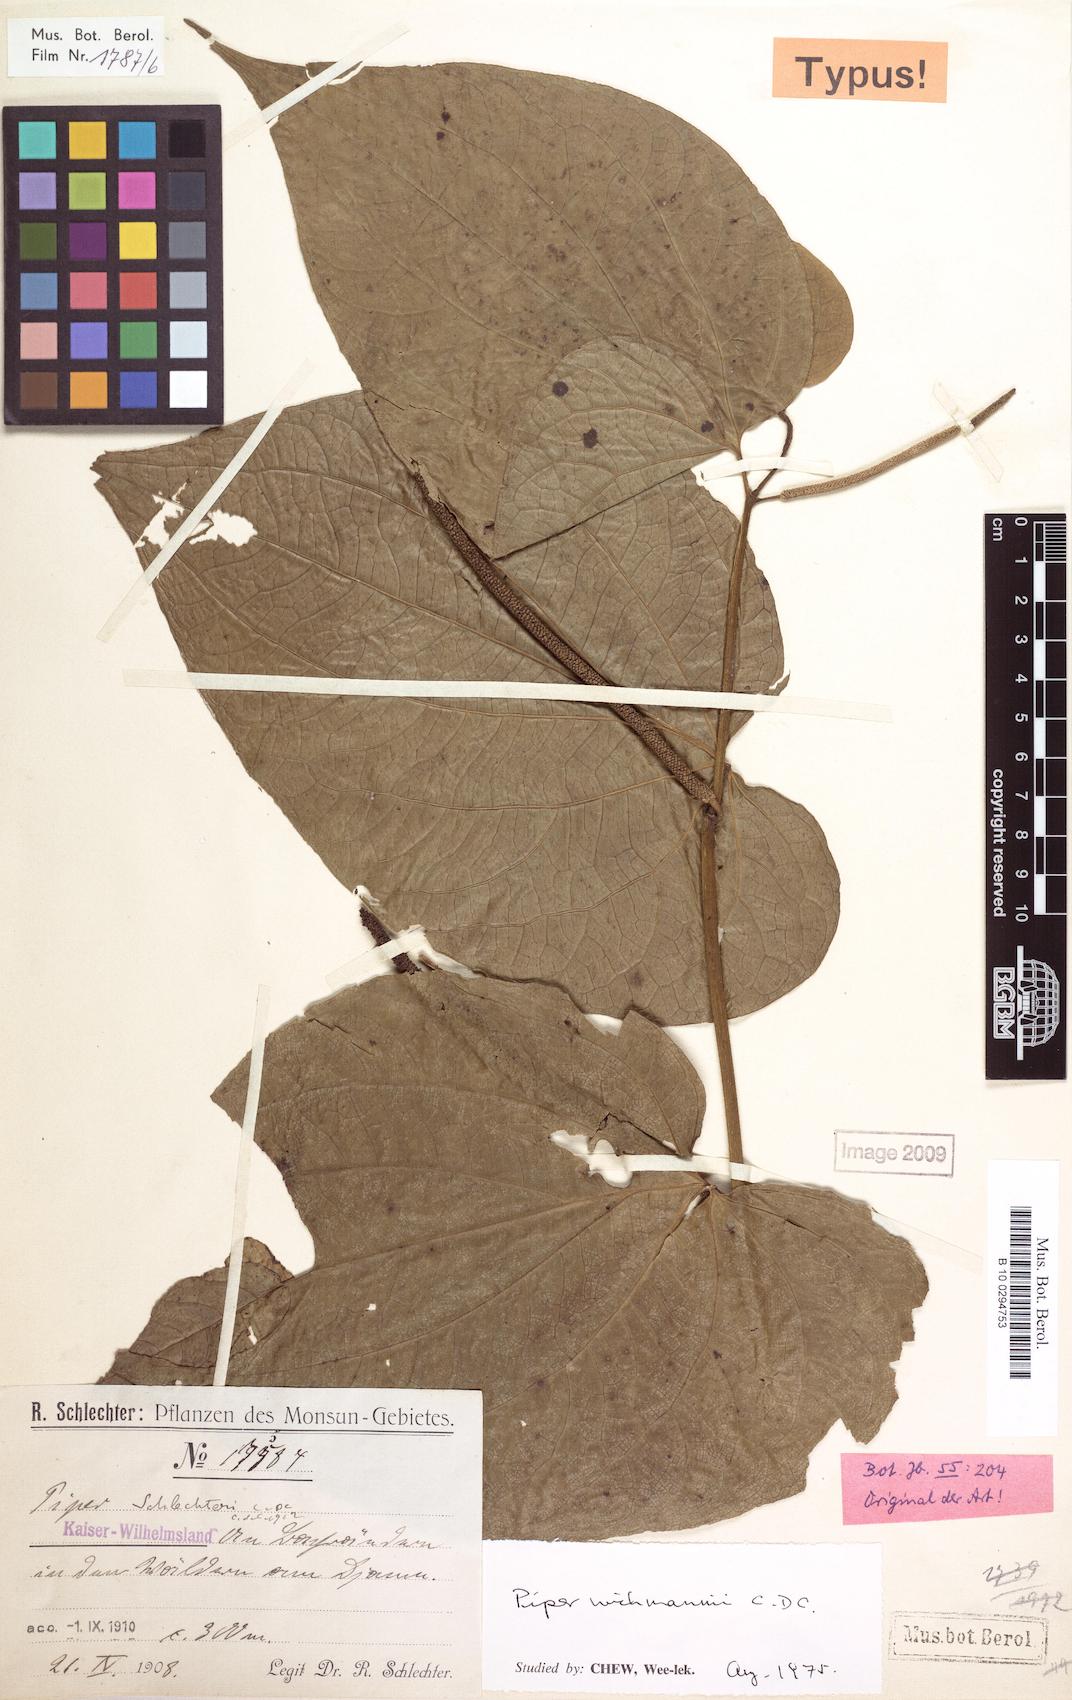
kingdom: Plantae
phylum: Tracheophyta
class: Magnoliopsida
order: Piperales
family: Piperaceae
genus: Macropiper
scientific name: Macropiper methysticum
